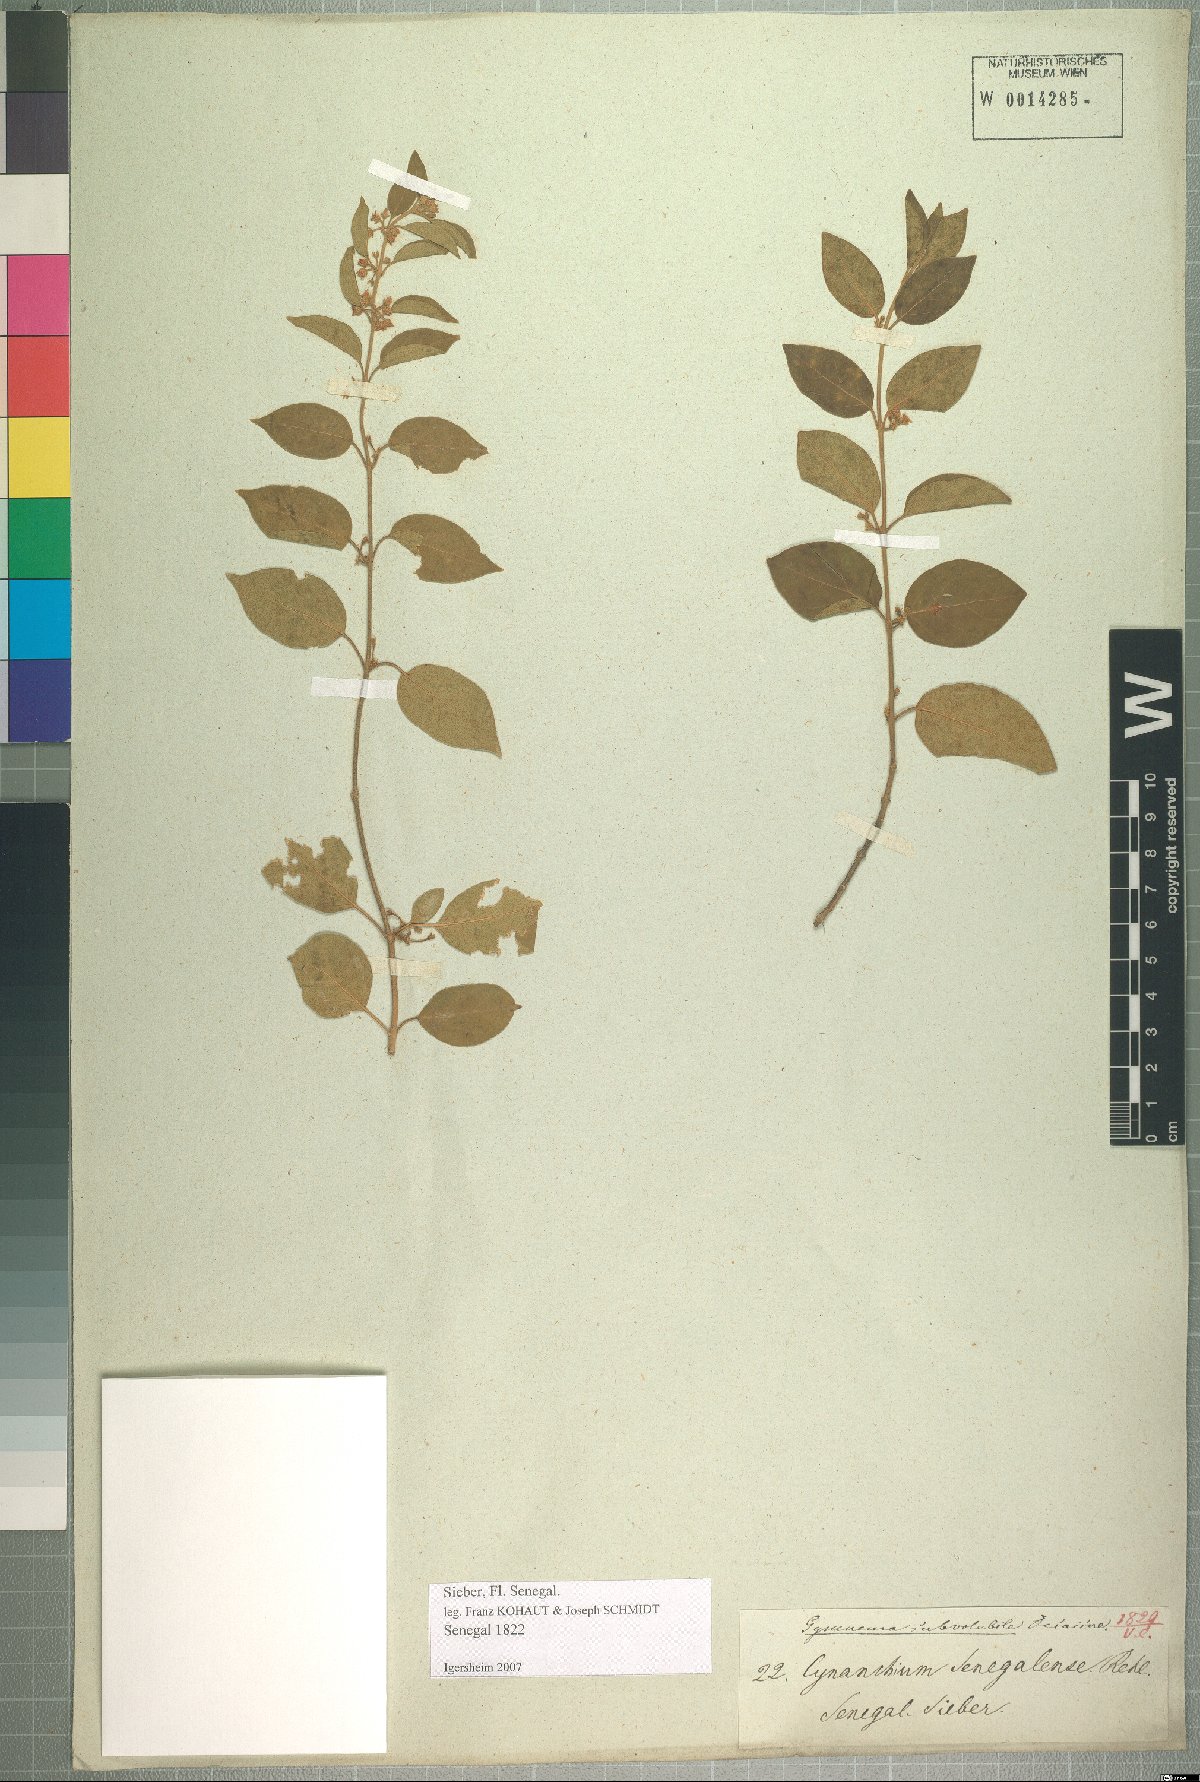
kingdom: Plantae
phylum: Tracheophyta
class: Magnoliopsida
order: Gentianales
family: Apocynaceae
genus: Gymnema
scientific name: Gymnema sylvestre
